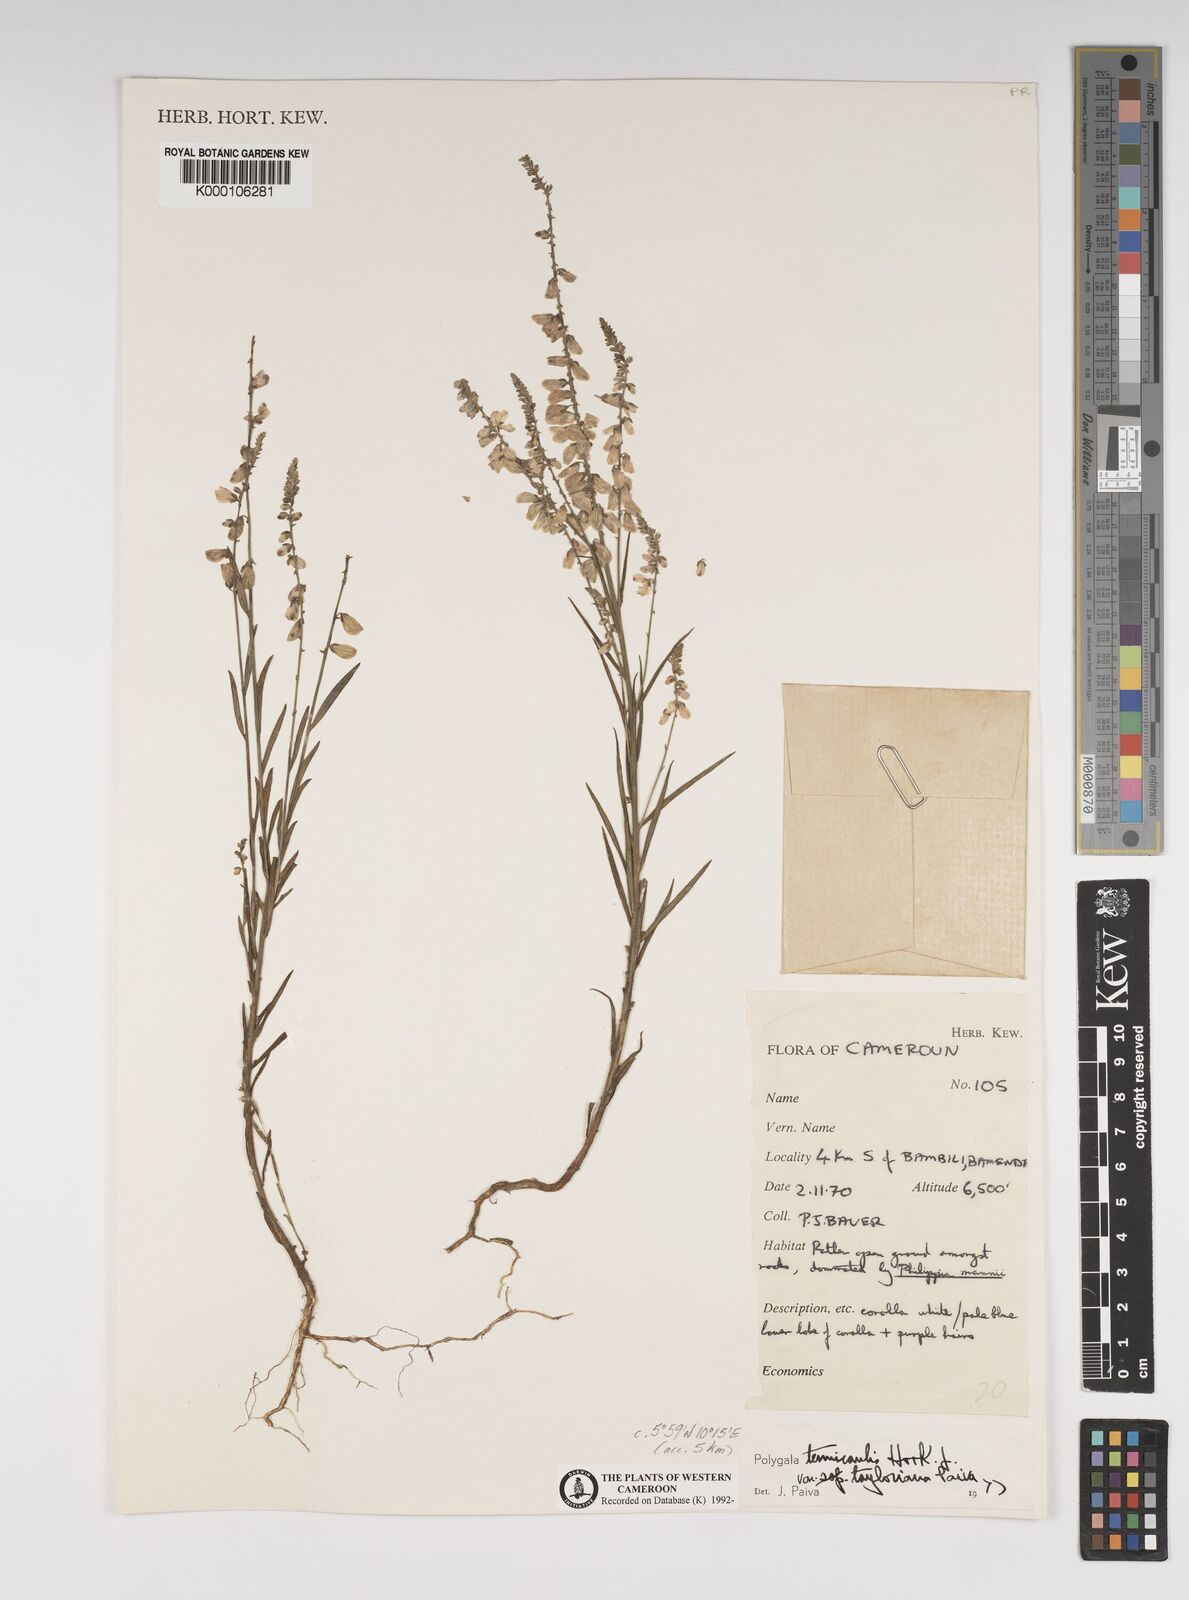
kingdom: Plantae
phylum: Tracheophyta
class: Magnoliopsida
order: Fabales
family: Polygalaceae
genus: Polygala
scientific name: Polygala tenuicaulis
